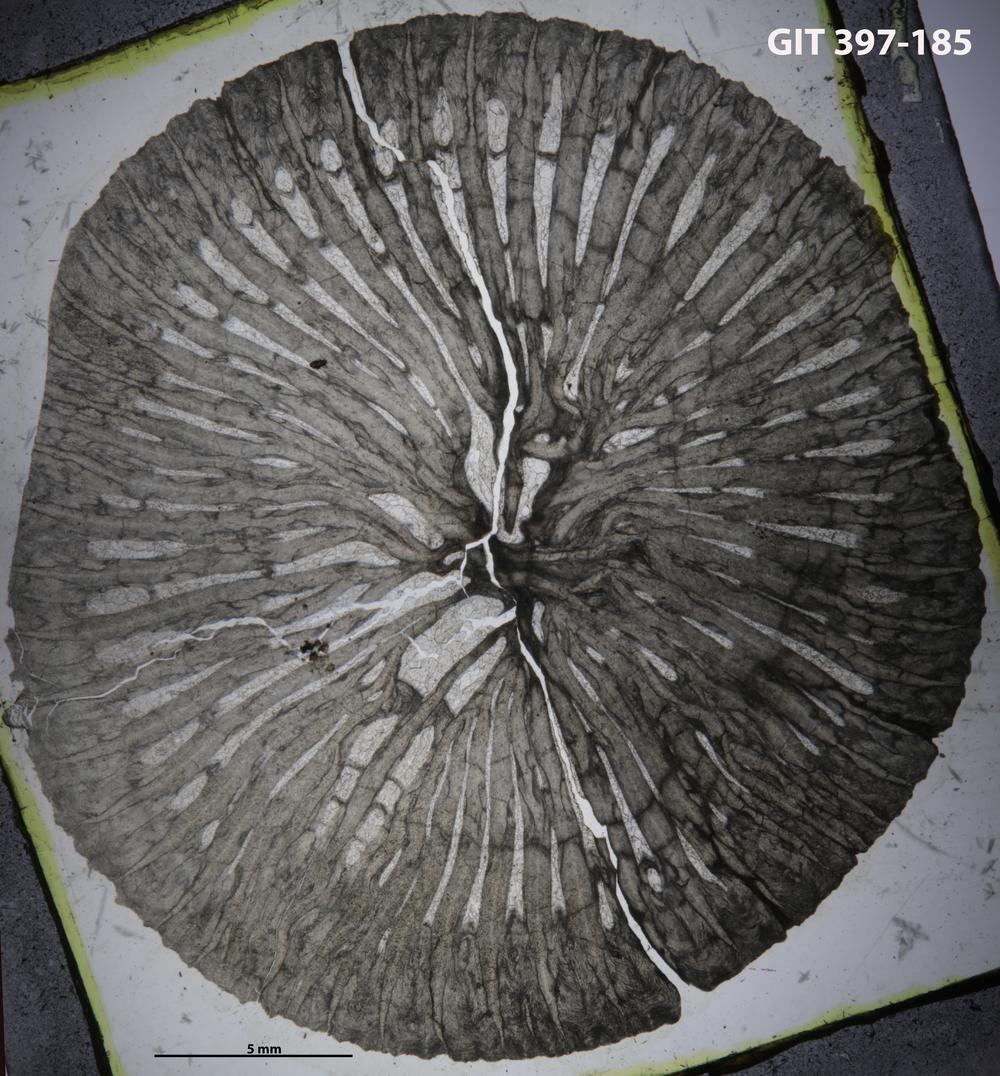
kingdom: Plantae
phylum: Tracheophyta
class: Pinopsida
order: Pinales
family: Cupressaceae
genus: Platycladus
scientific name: Platycladus
